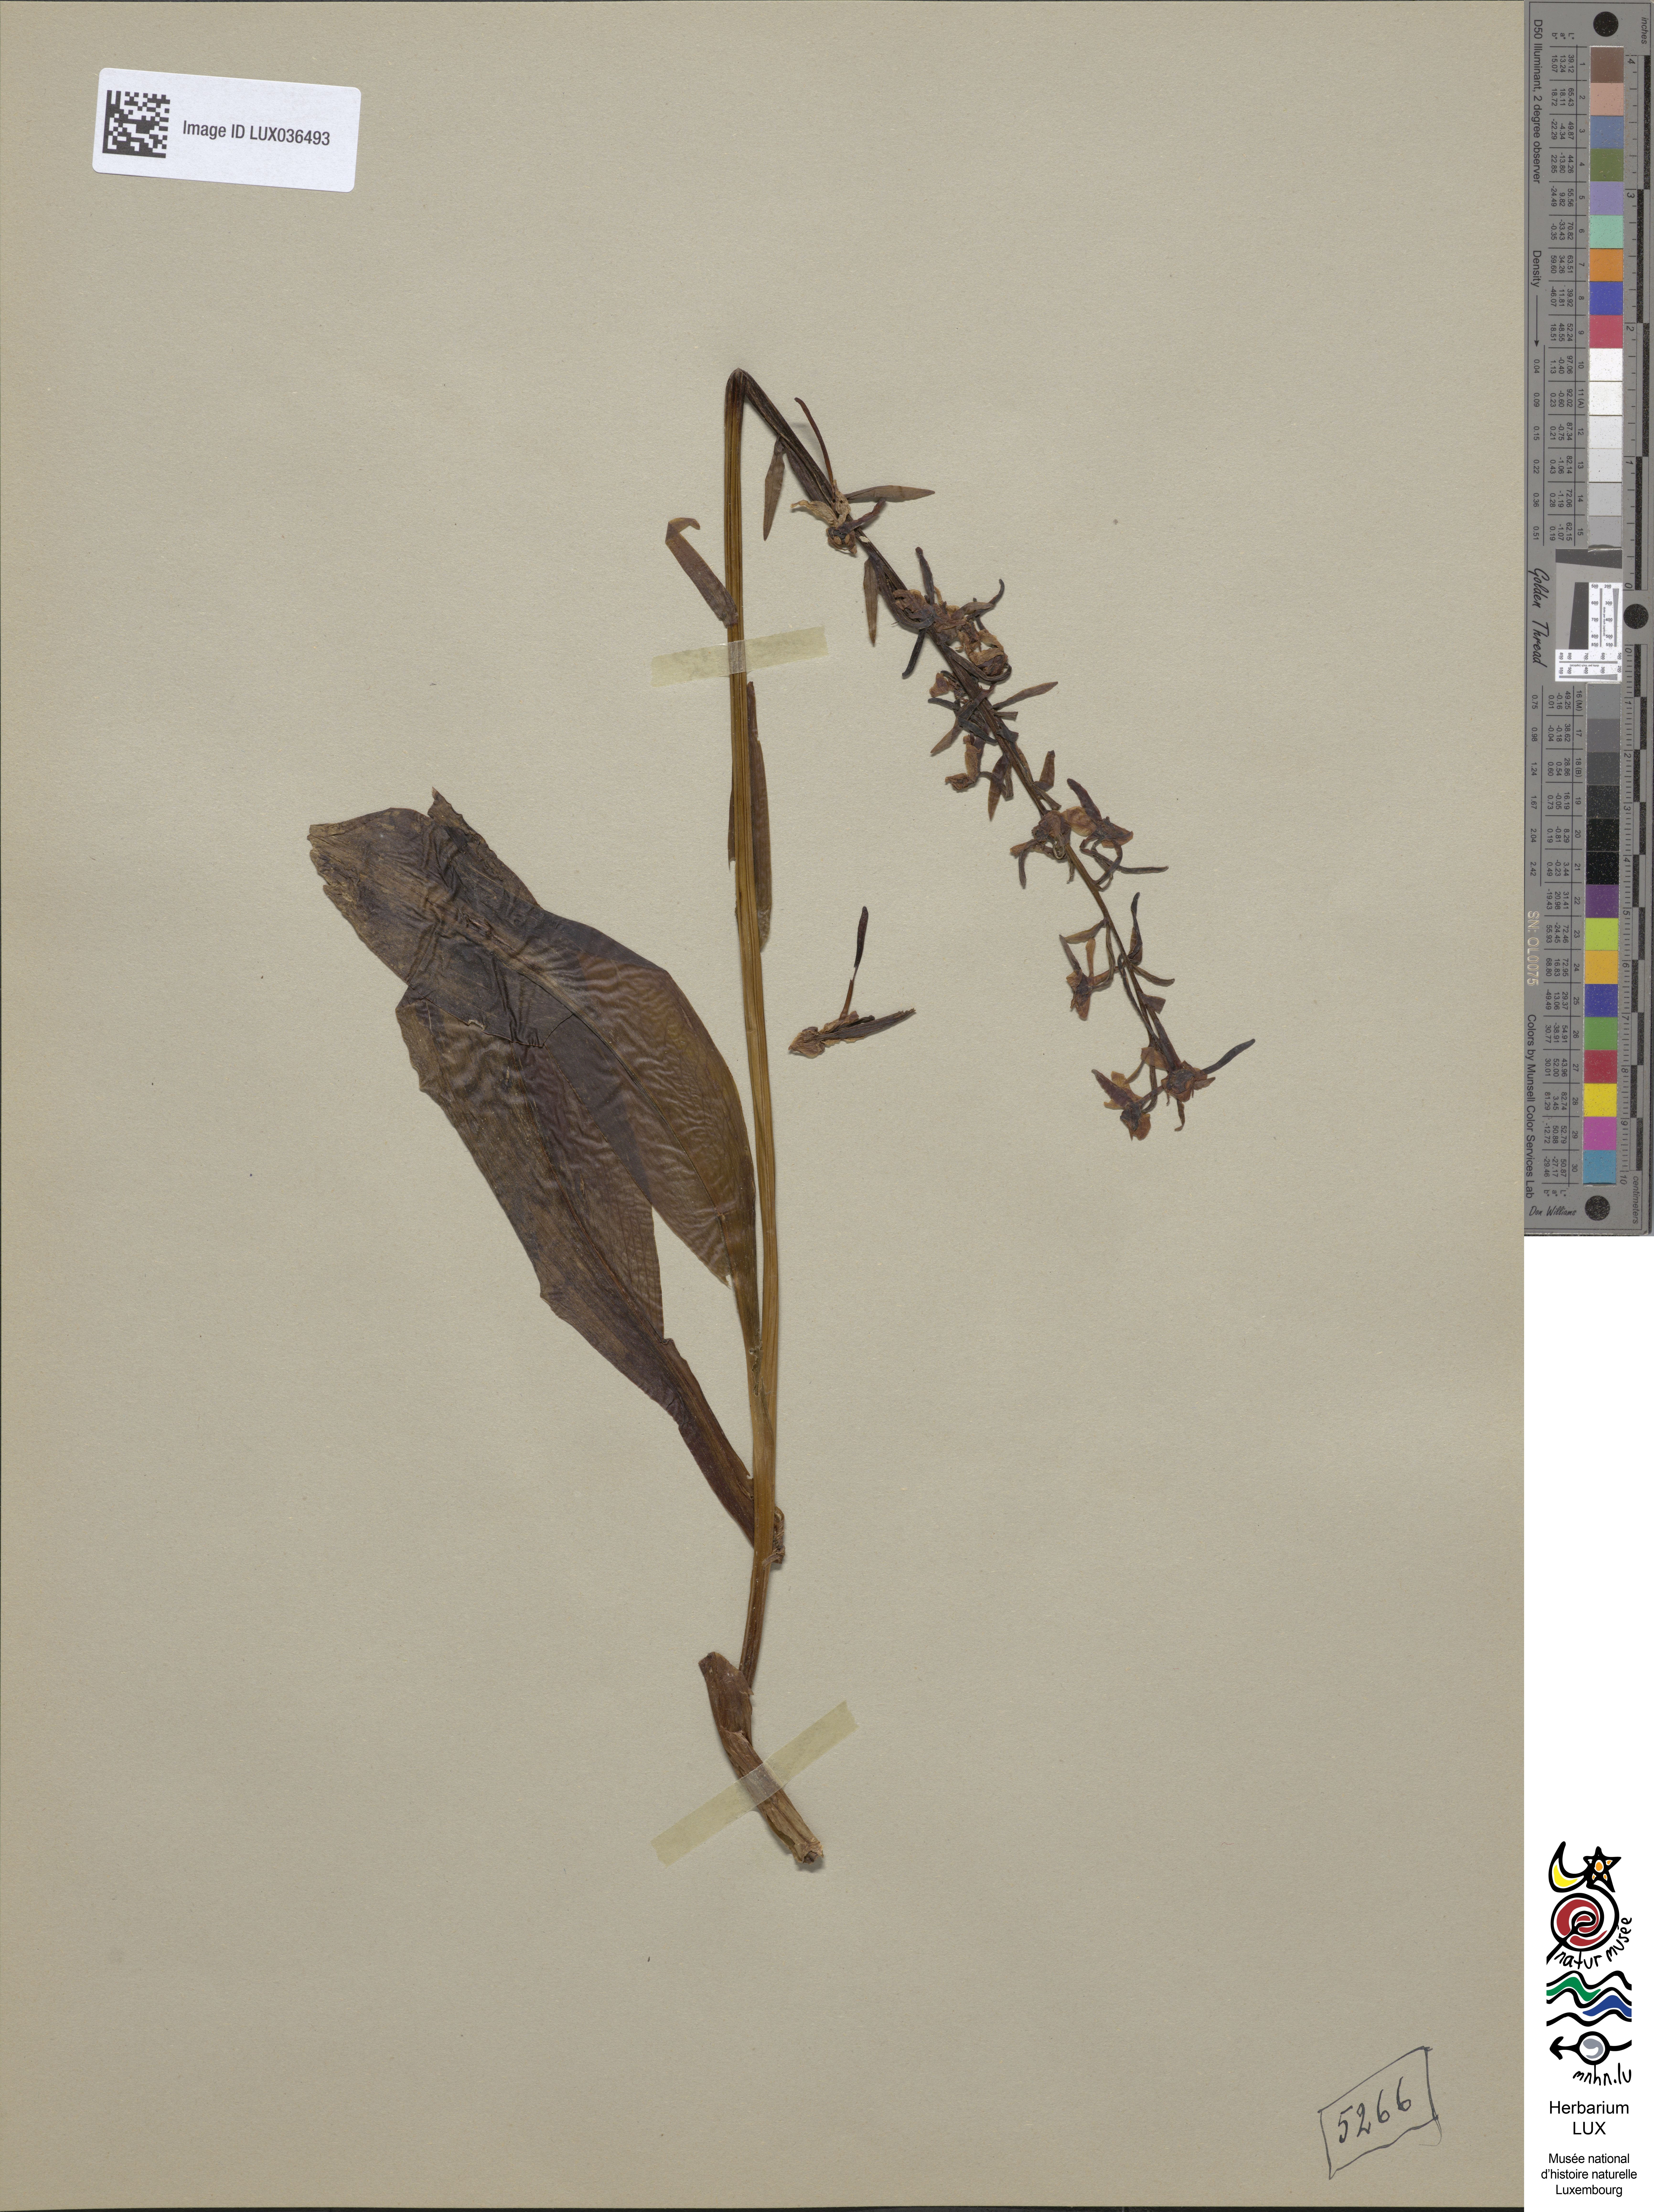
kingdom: Plantae
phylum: Tracheophyta
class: Liliopsida
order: Asparagales
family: Orchidaceae
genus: Platanthera
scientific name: Platanthera chlorantha
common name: Greater butterfly-orchid
